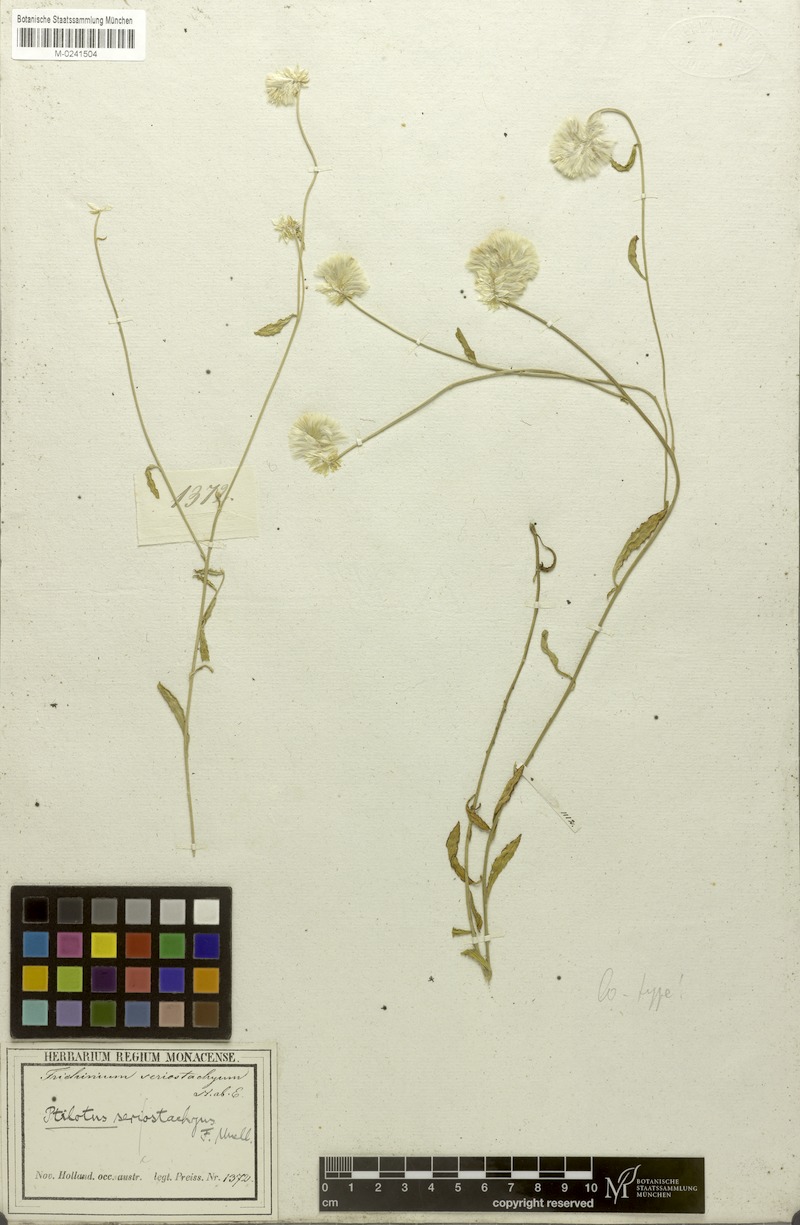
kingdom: Plantae
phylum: Tracheophyta
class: Magnoliopsida
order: Caryophyllales
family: Amaranthaceae
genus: Ptilotus
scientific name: Ptilotus sericostachyus
